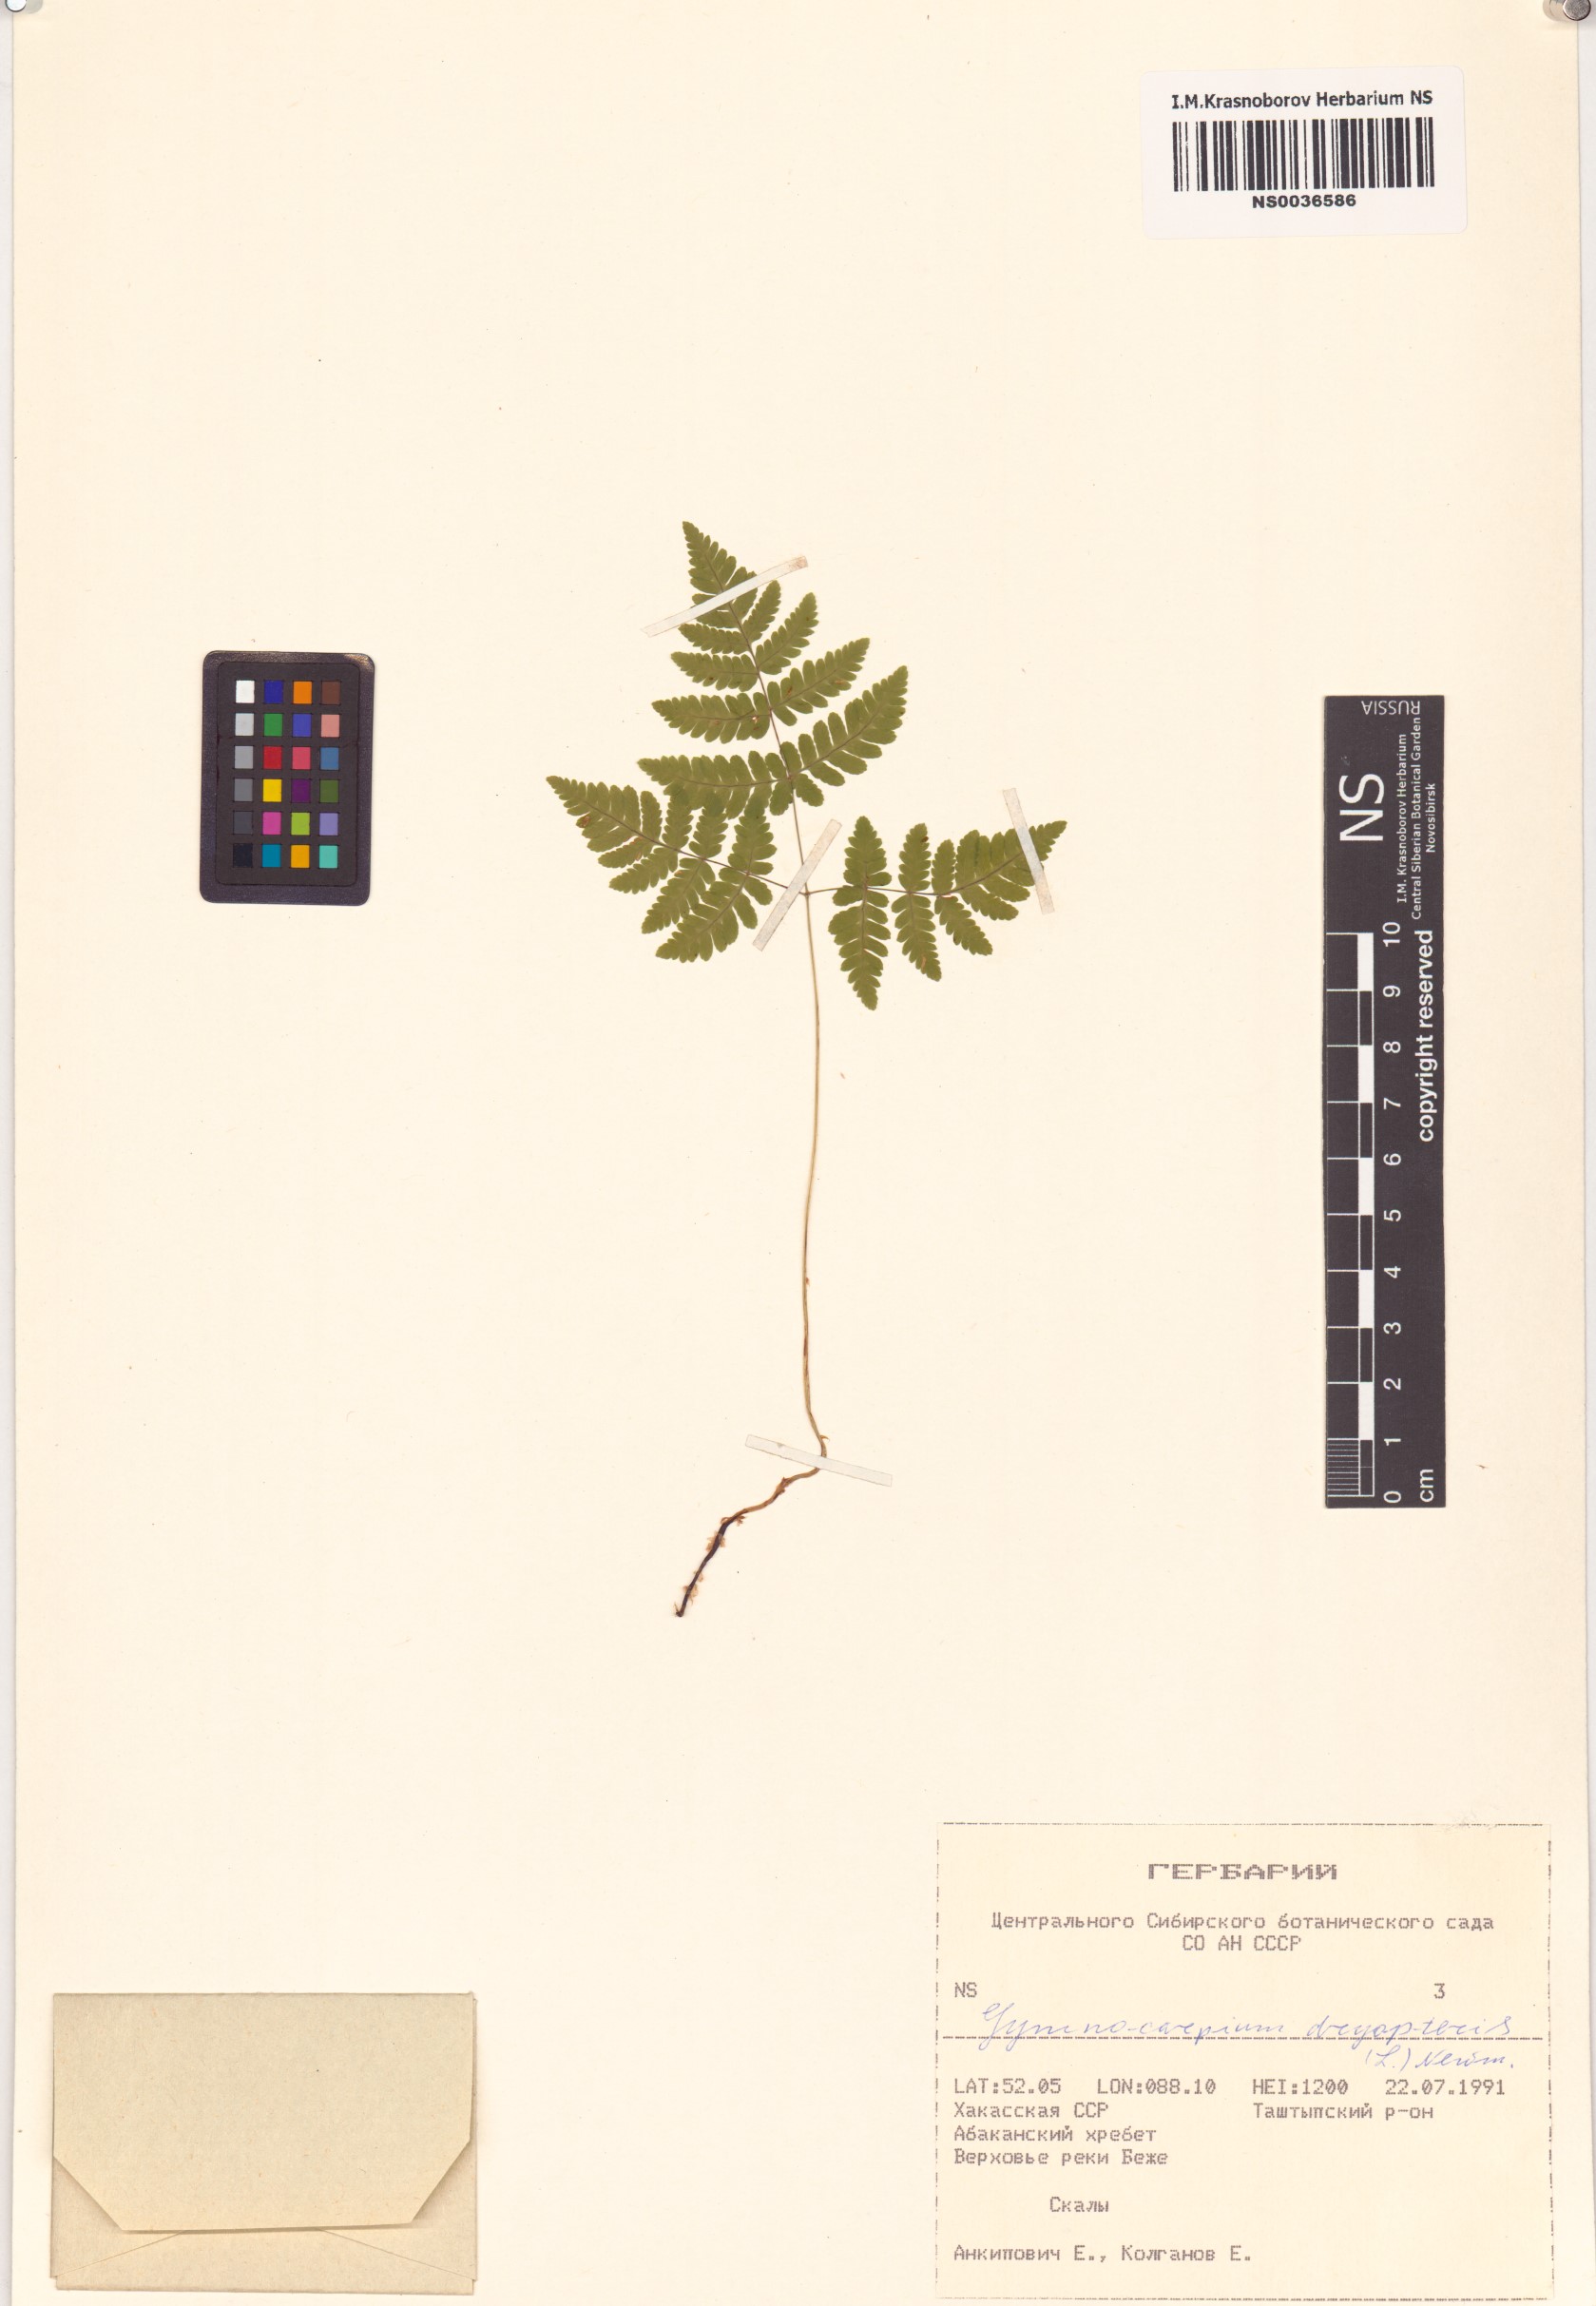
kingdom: Plantae
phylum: Tracheophyta
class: Polypodiopsida
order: Polypodiales
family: Cystopteridaceae
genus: Gymnocarpium
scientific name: Gymnocarpium dryopteris
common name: Oak fern
